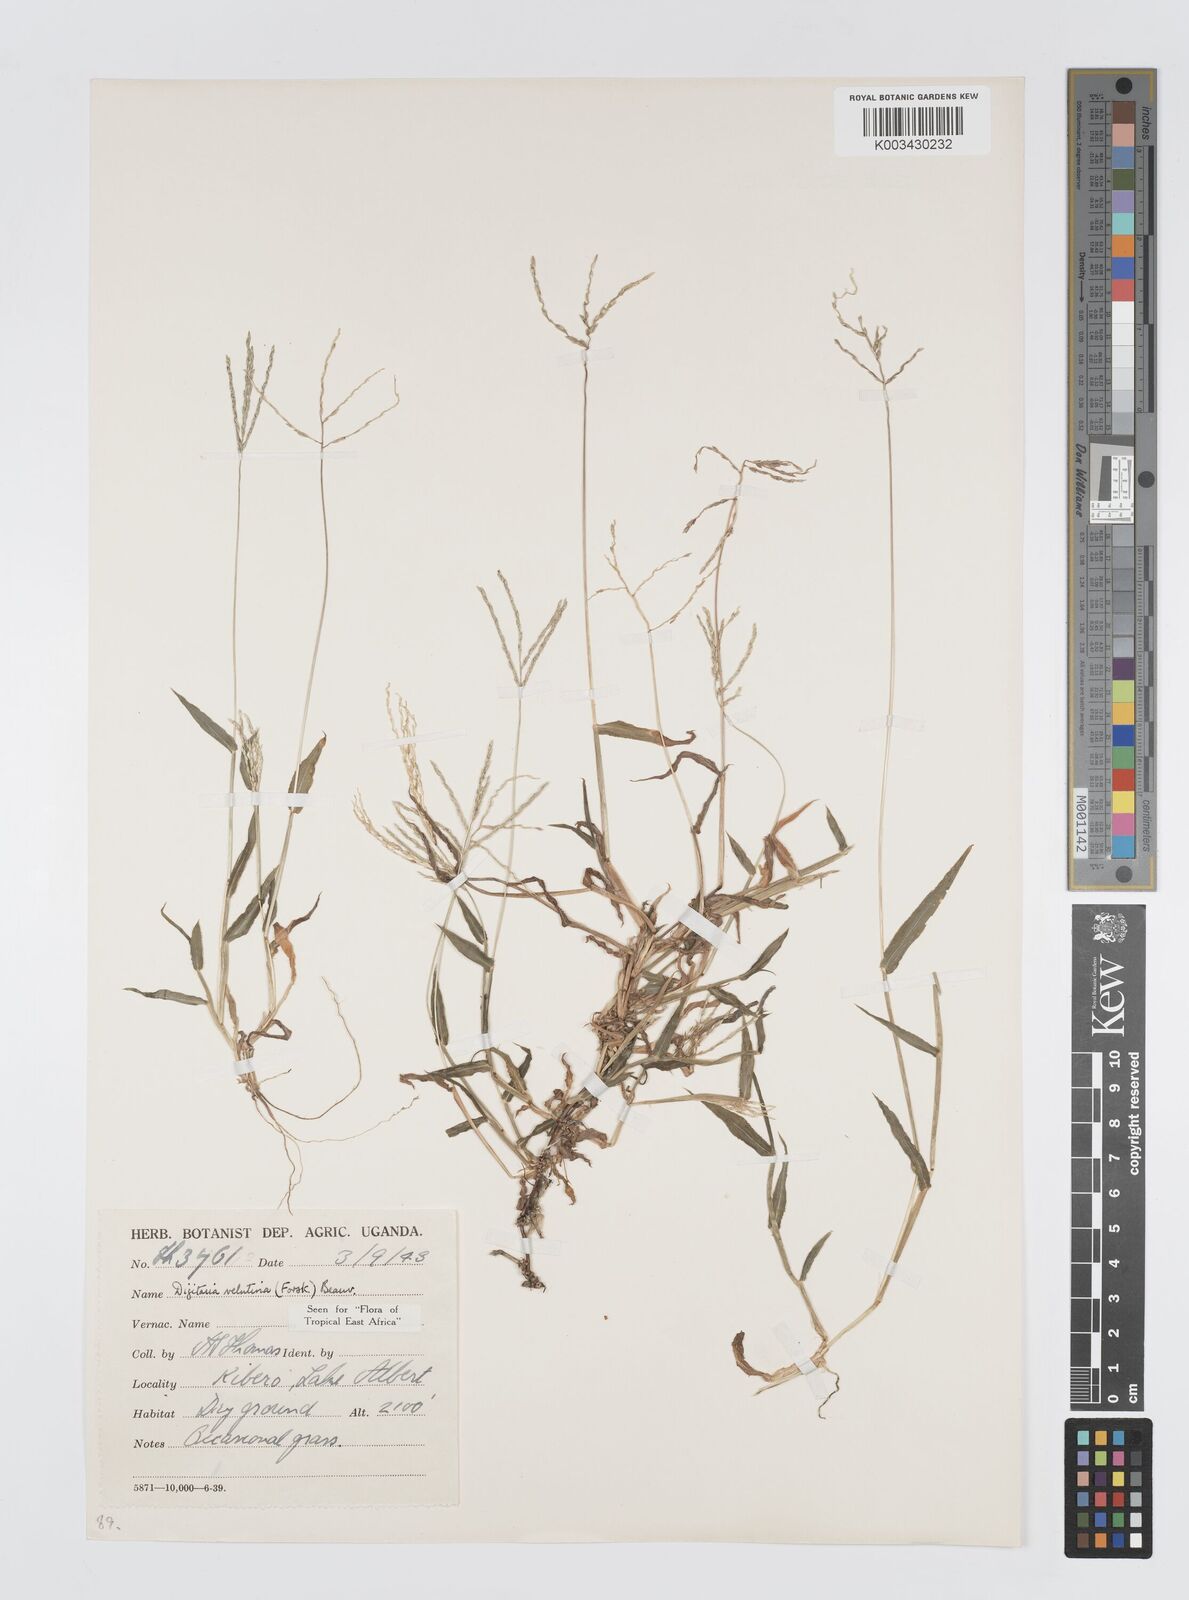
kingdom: Plantae
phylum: Tracheophyta
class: Liliopsida
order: Poales
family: Poaceae
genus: Digitaria
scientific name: Digitaria velutina
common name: Long-plume finger grass
